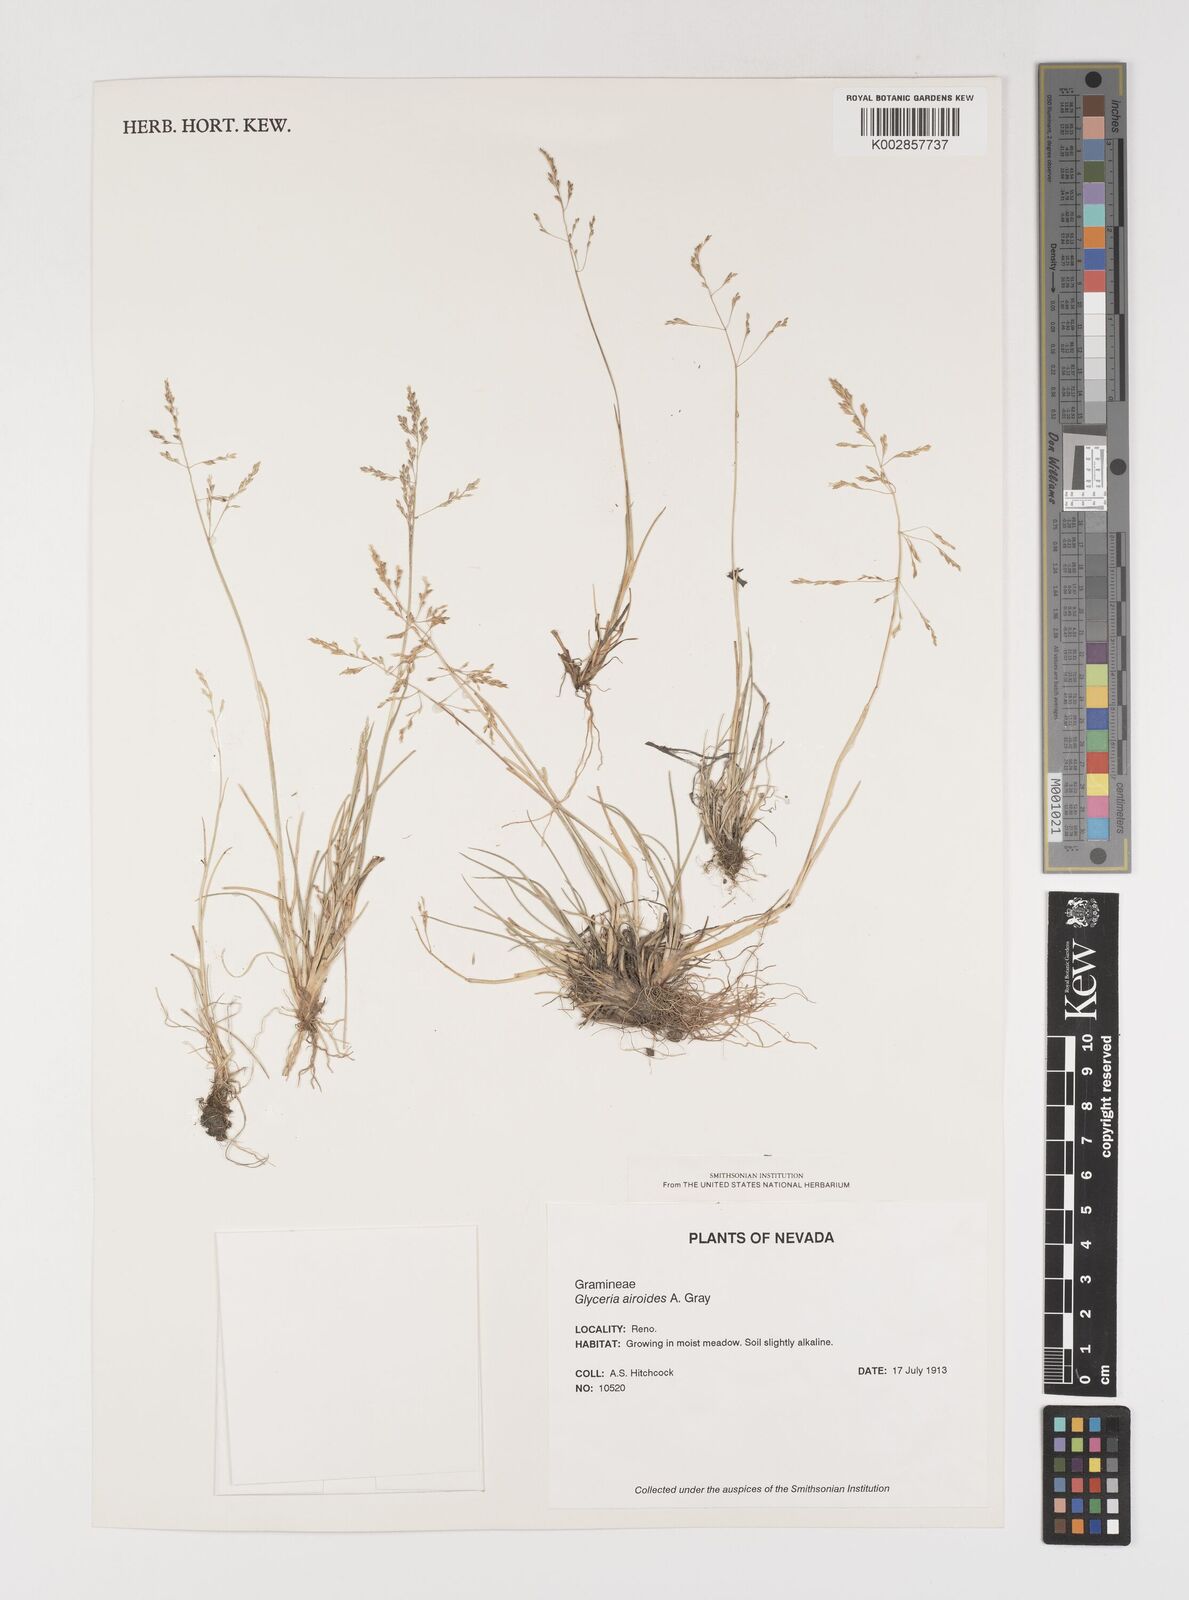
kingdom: Plantae
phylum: Tracheophyta
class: Liliopsida
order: Poales
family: Poaceae
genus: Puccinellia
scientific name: Puccinellia nuttalliana
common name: Nuttall's alkali grass
